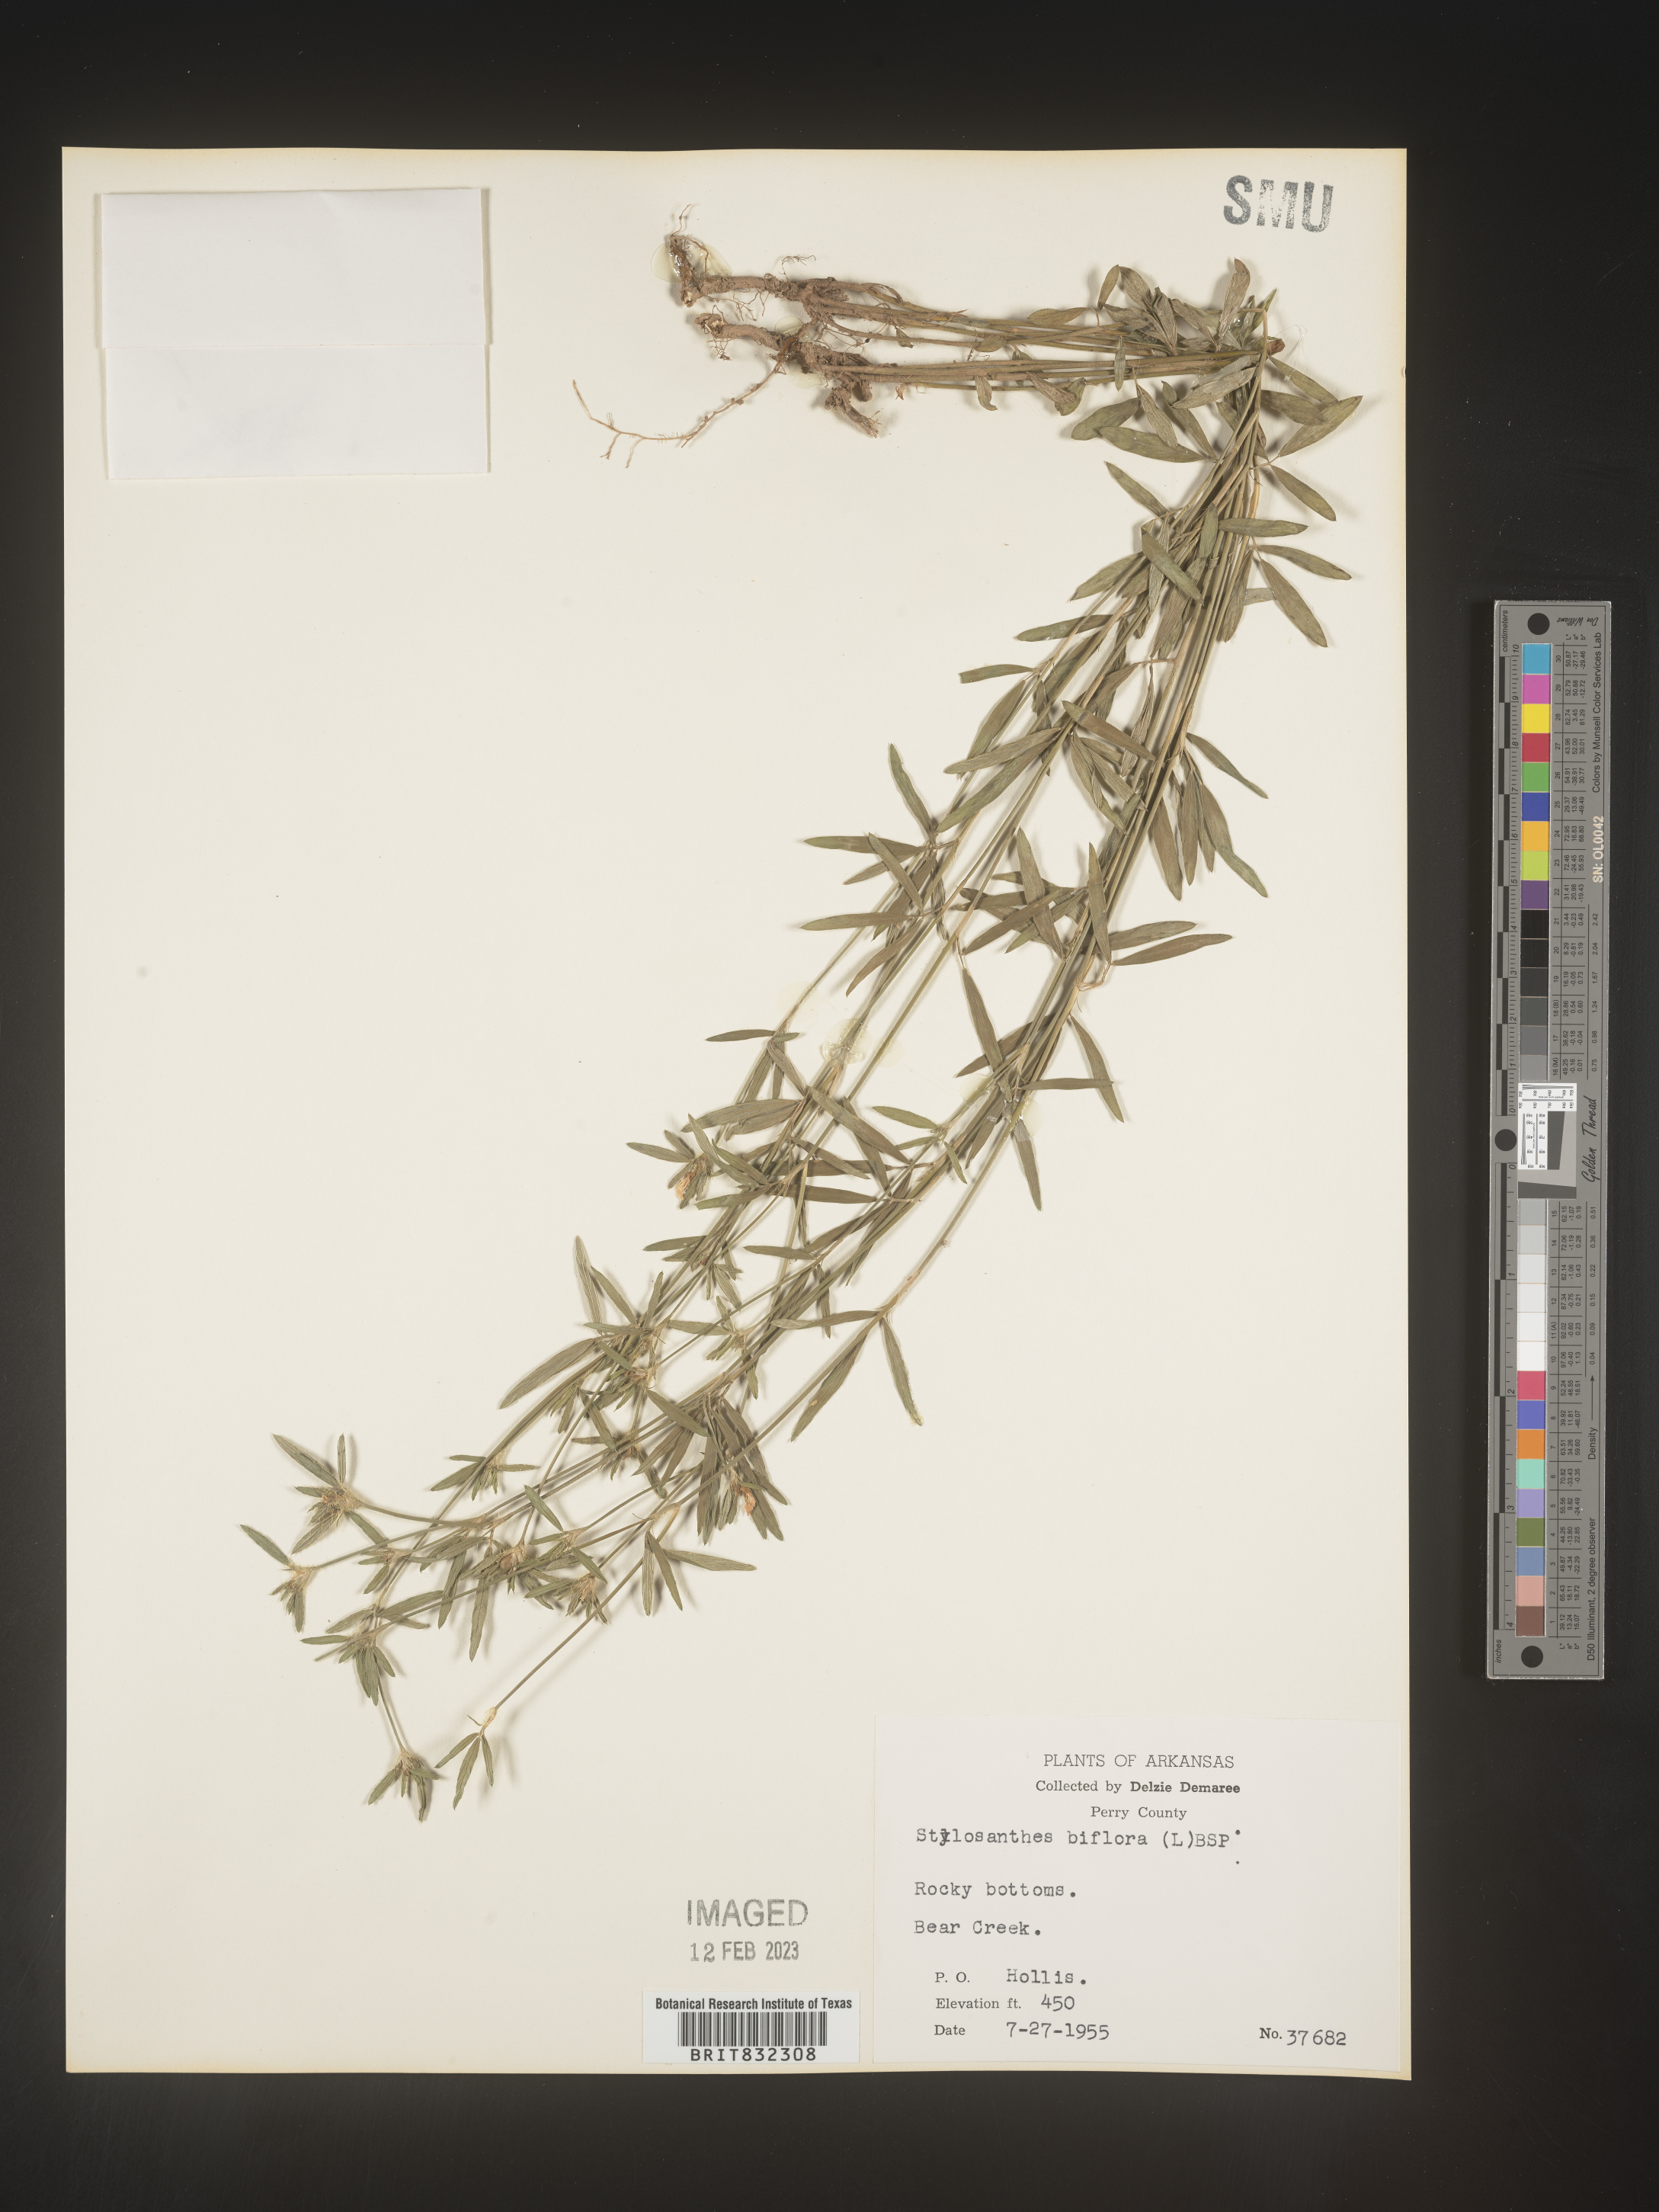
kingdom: Plantae
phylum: Tracheophyta
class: Magnoliopsida
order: Fabales
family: Fabaceae
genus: Stylosanthes
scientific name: Stylosanthes biflora
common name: Two-flower pencil-flower
